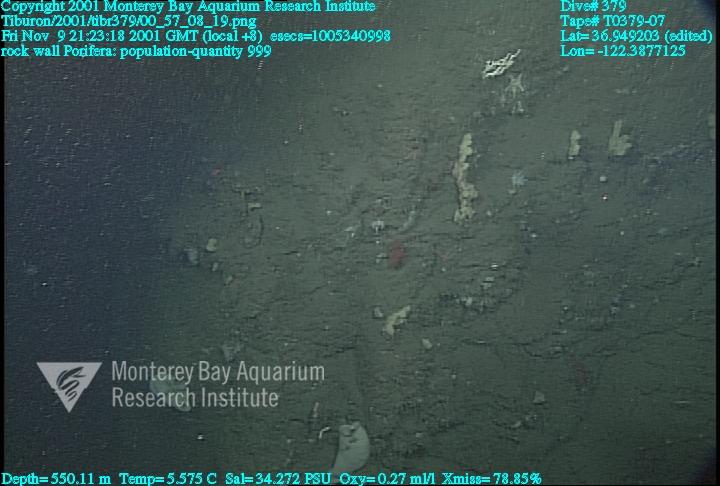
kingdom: Animalia
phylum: Porifera
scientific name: Porifera
